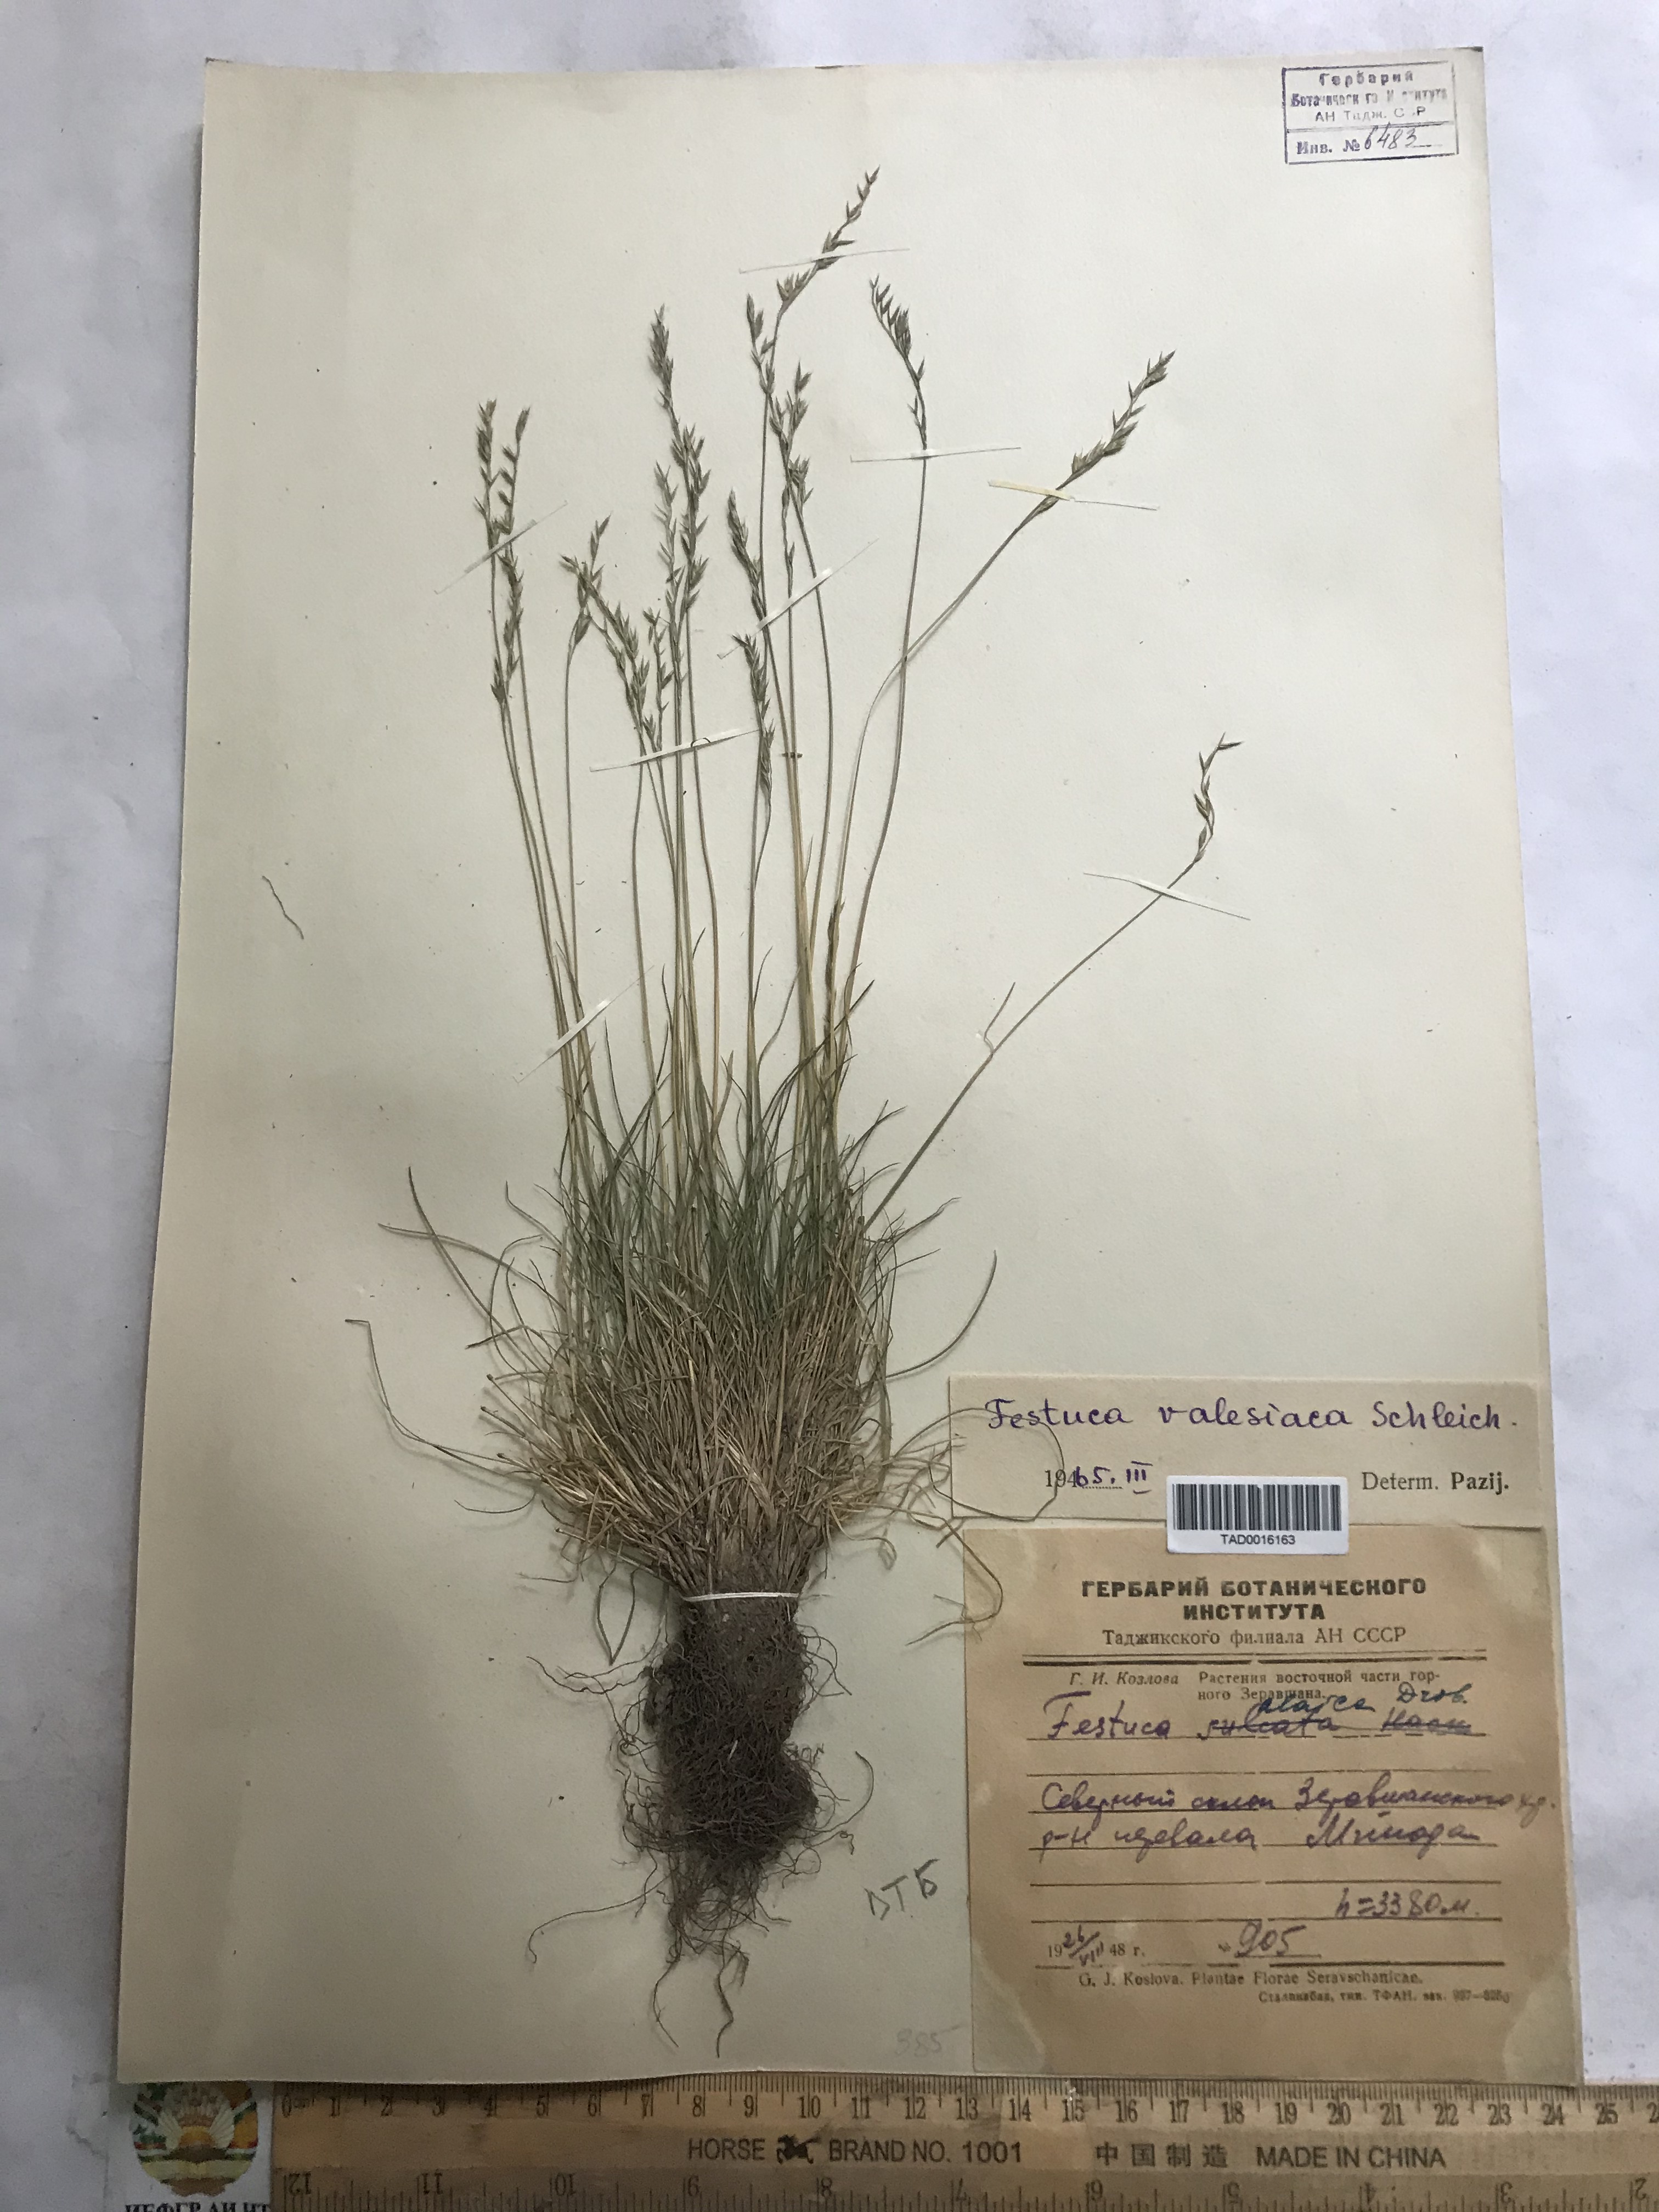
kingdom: Plantae
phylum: Tracheophyta
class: Liliopsida
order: Poales
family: Poaceae
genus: Festuca
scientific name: Festuca valesiaca
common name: Volga fescue
